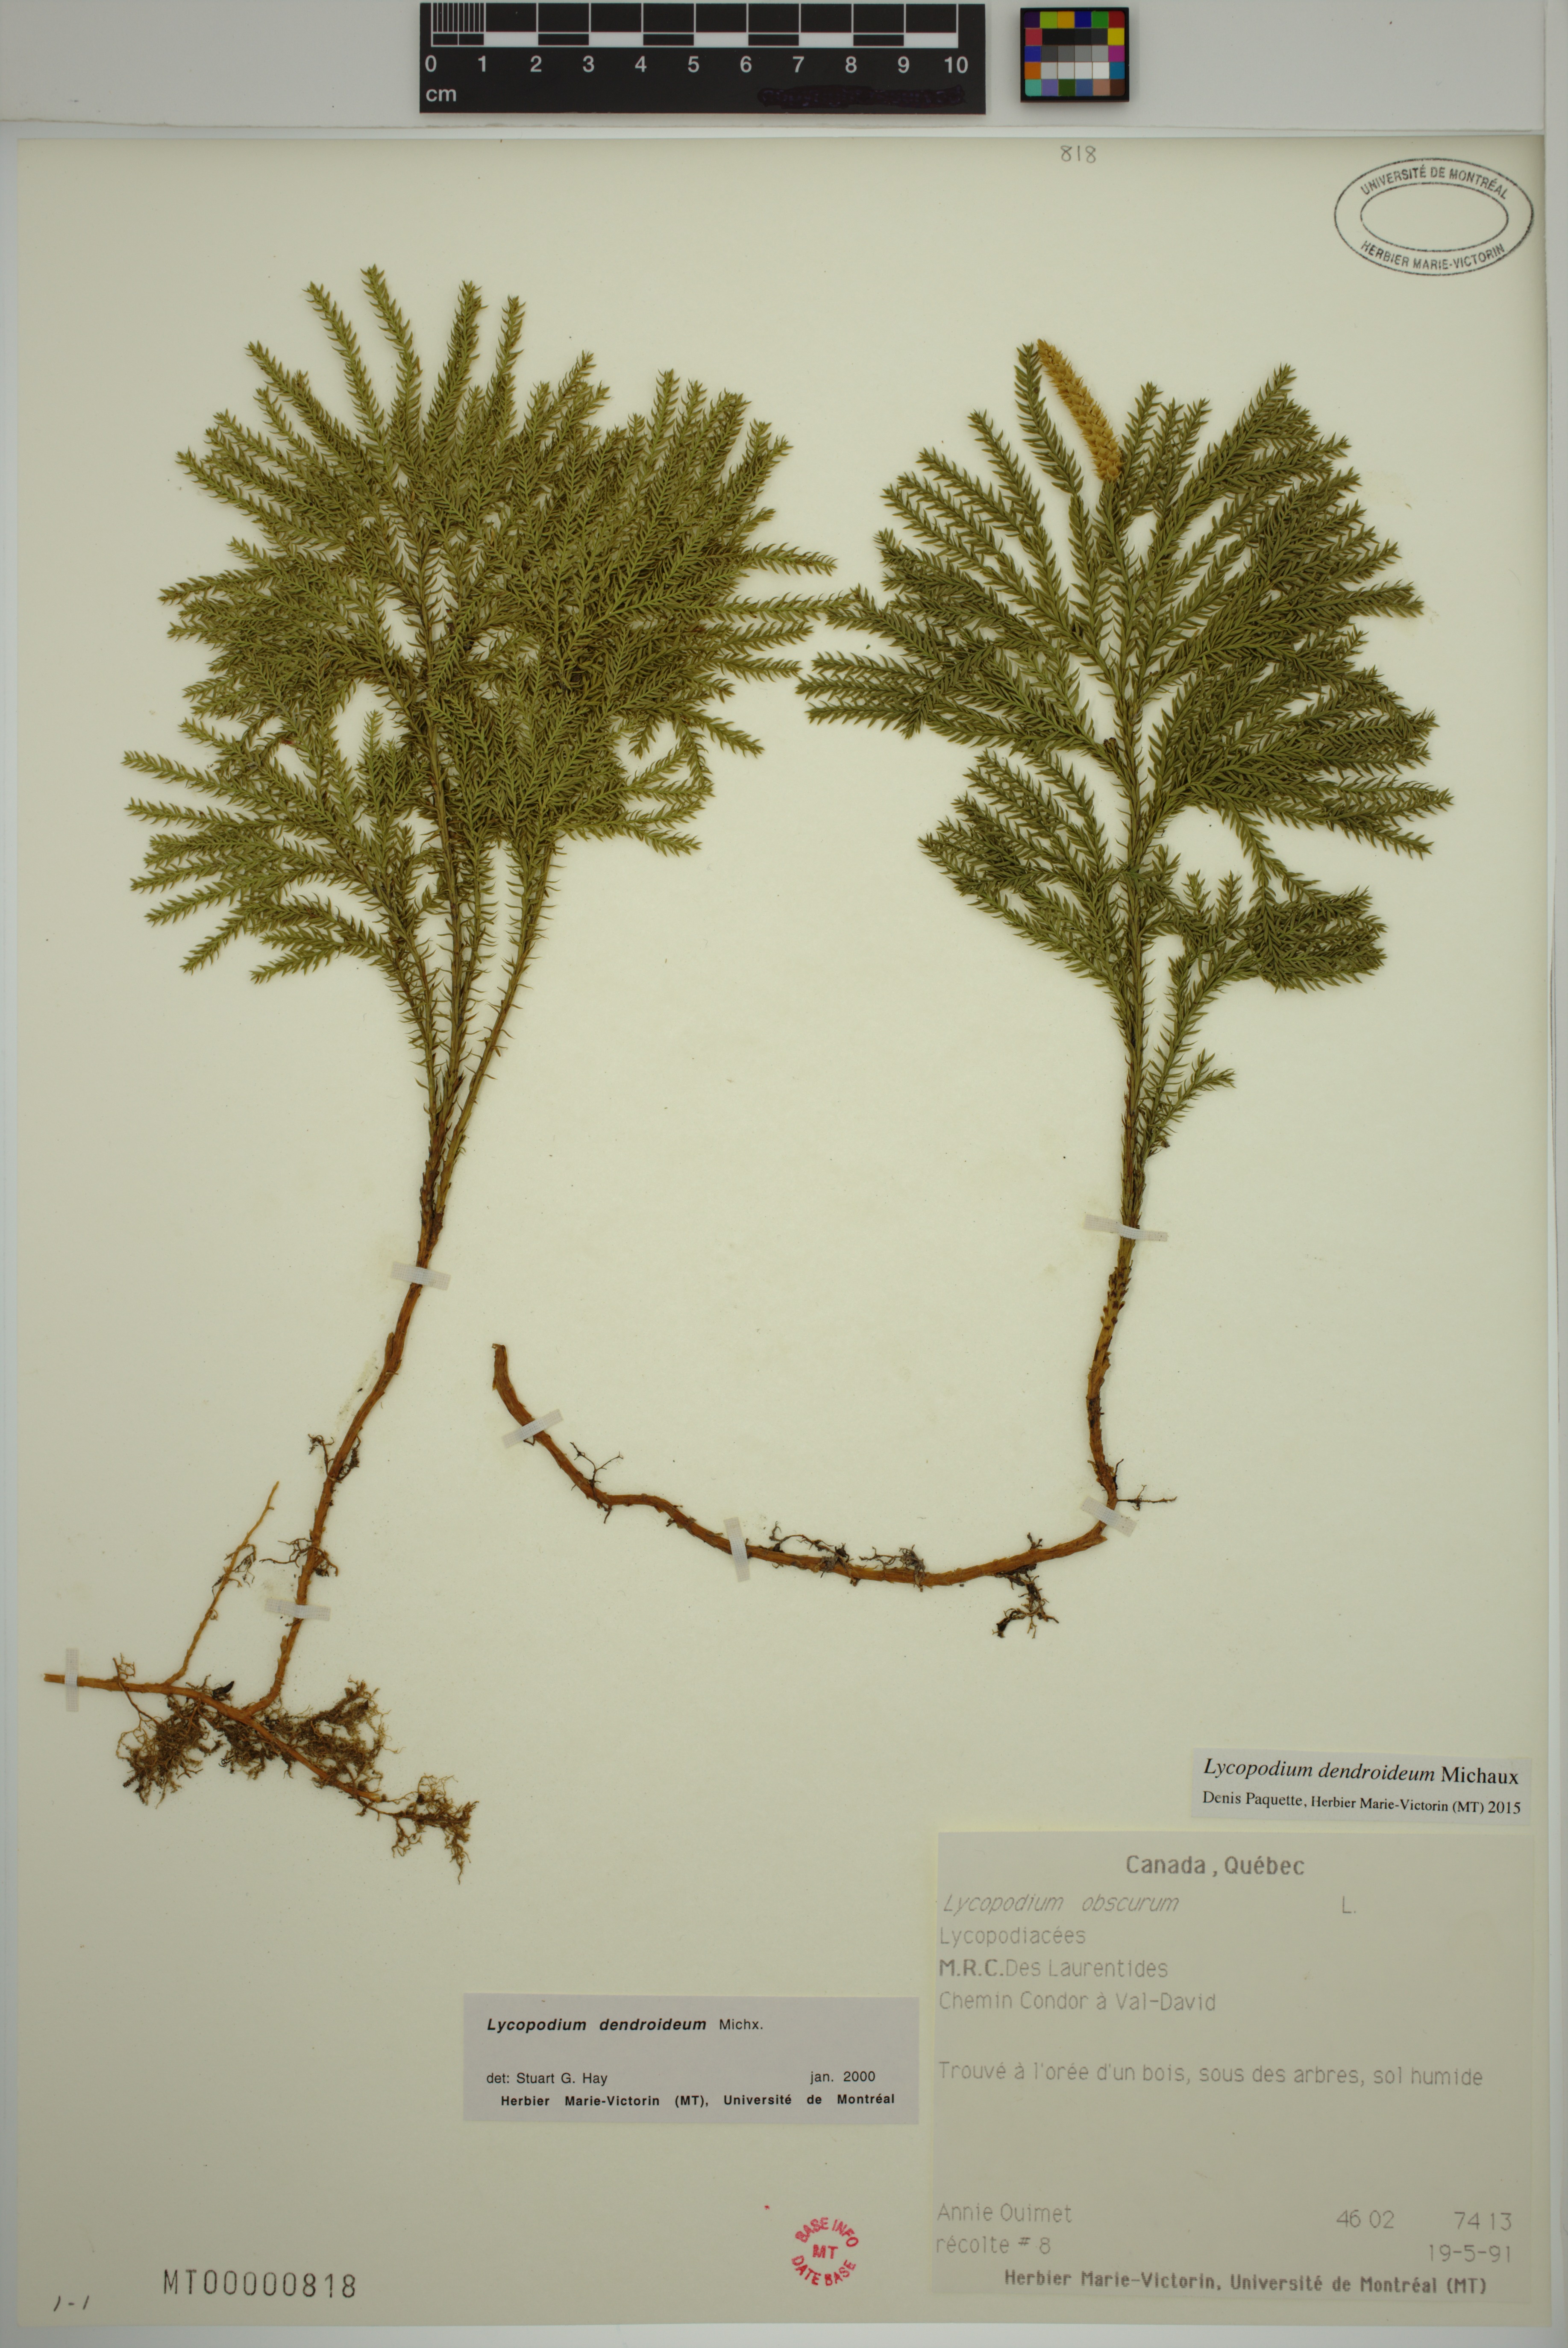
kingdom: Plantae
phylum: Tracheophyta
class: Lycopodiopsida
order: Lycopodiales
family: Lycopodiaceae
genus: Dendrolycopodium
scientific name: Dendrolycopodium obscurum
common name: Common ground-pine
